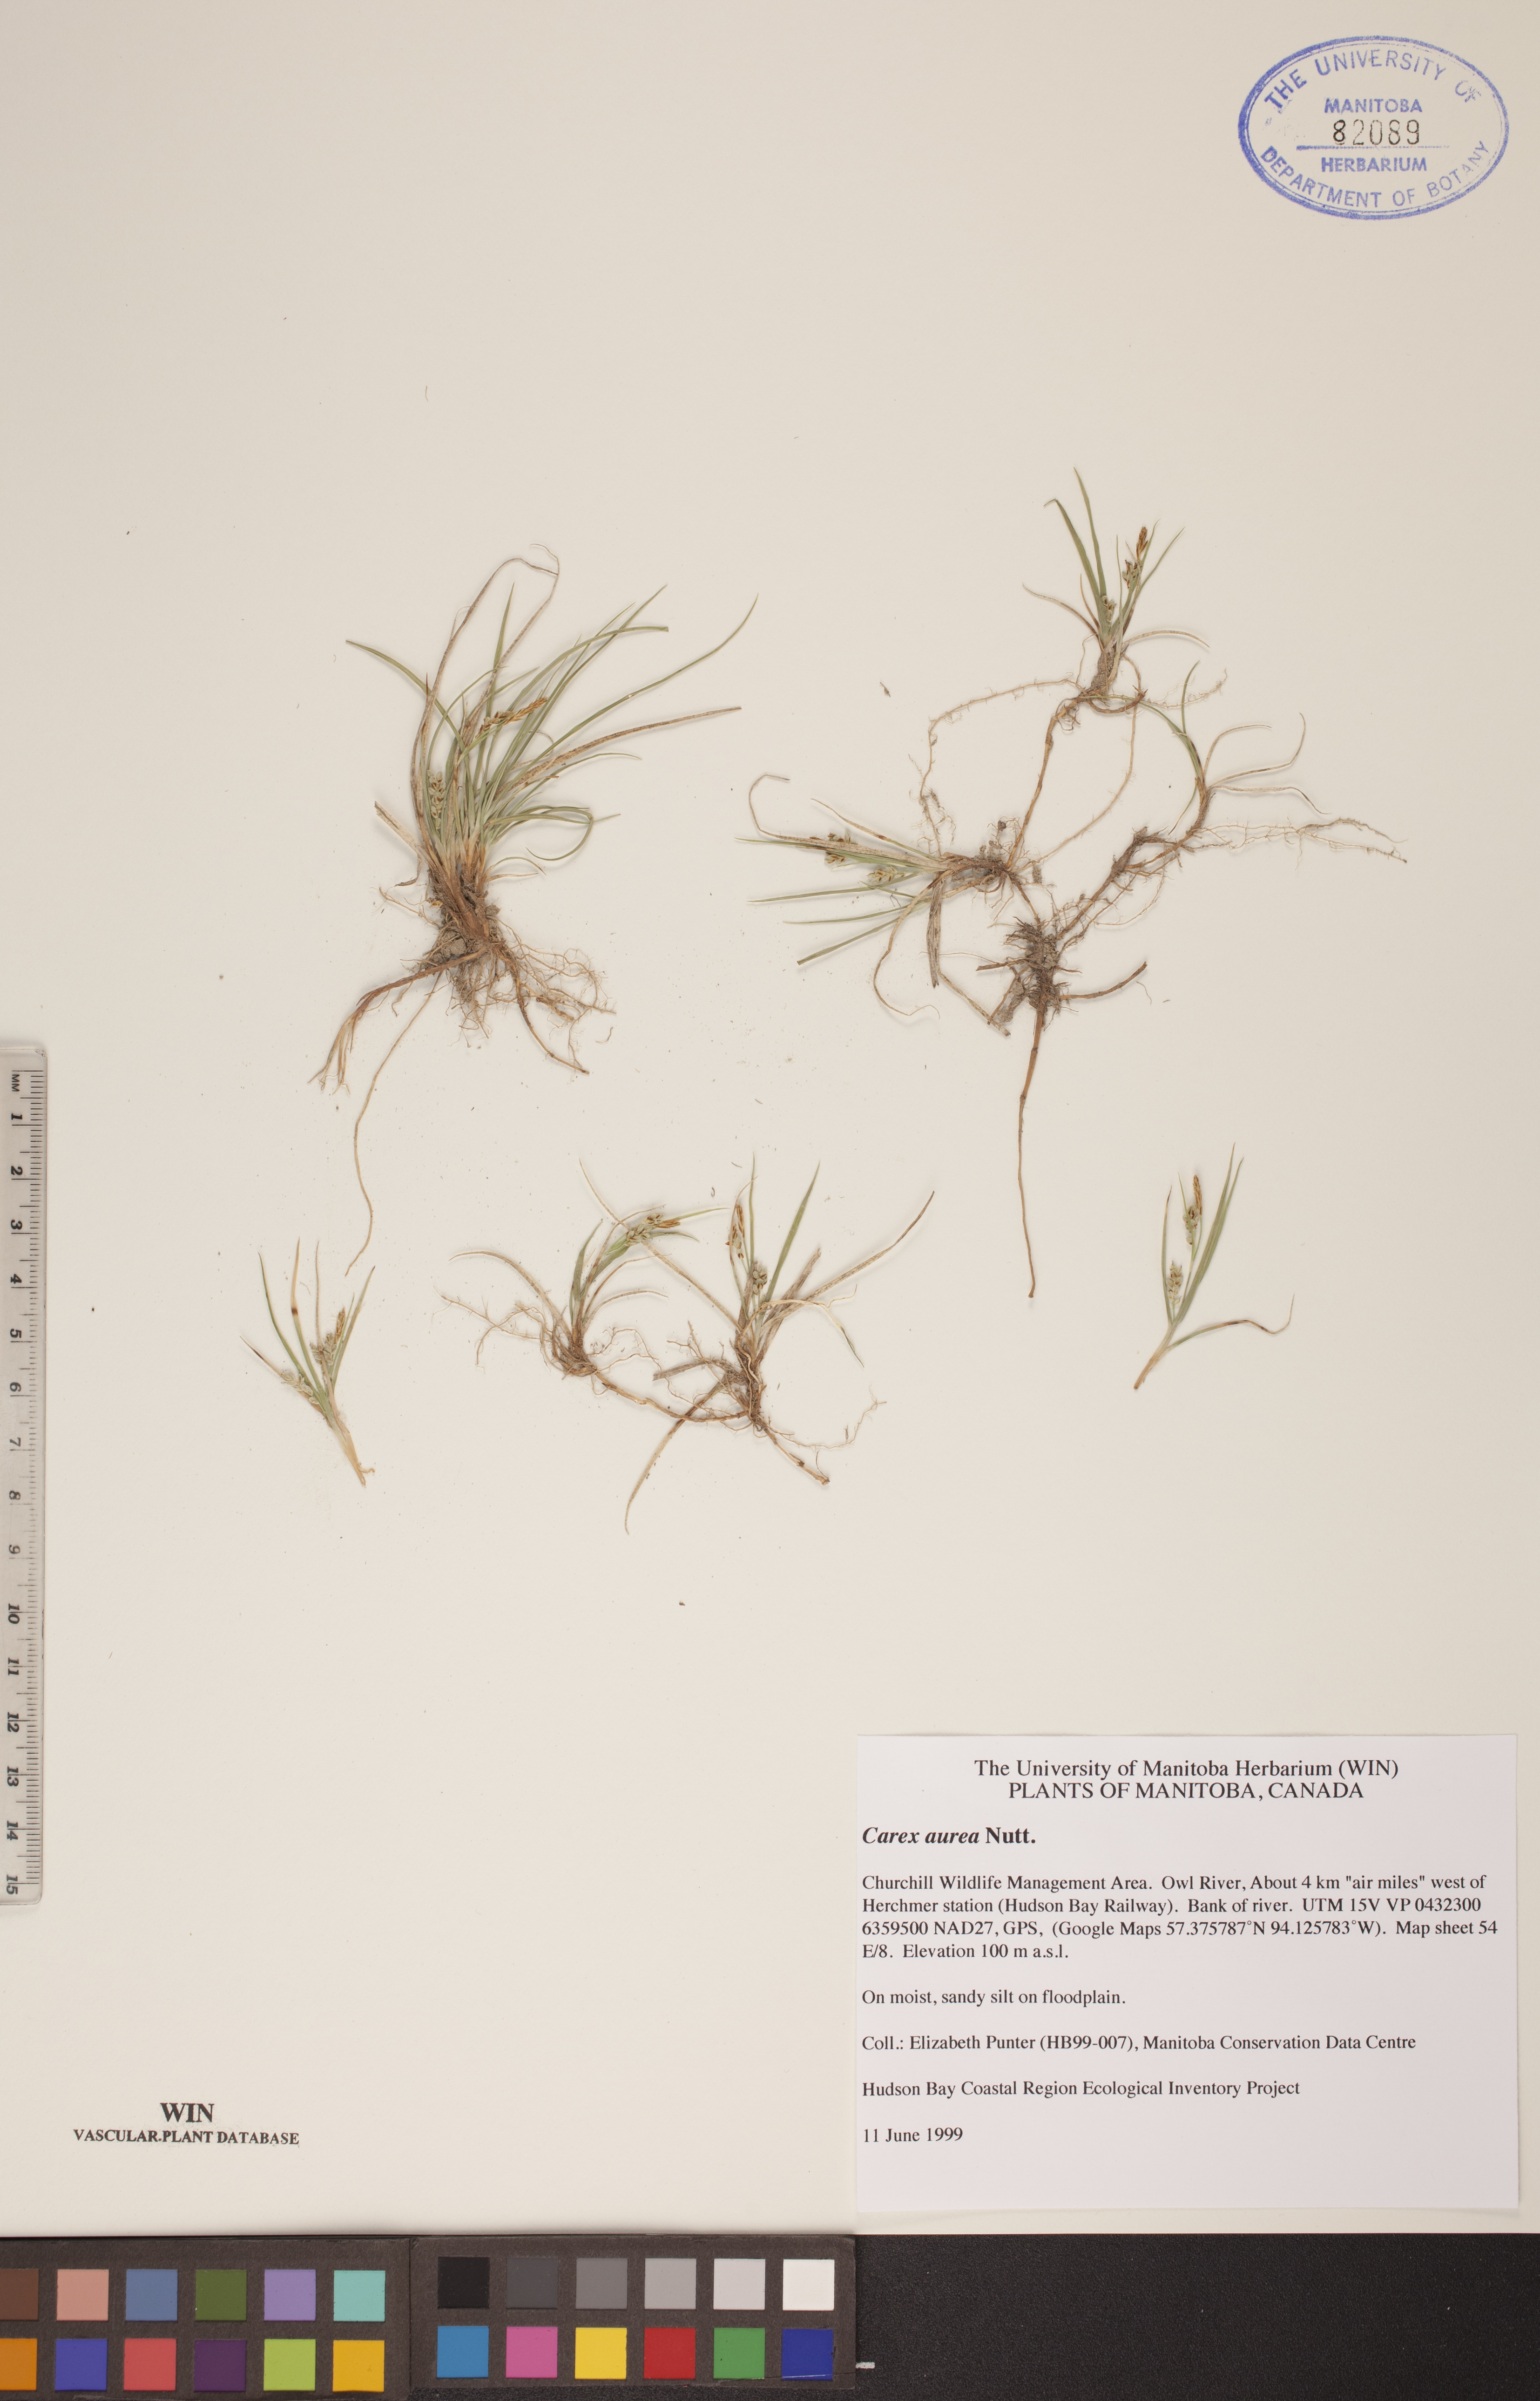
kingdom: Plantae
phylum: Tracheophyta
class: Liliopsida
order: Poales
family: Cyperaceae
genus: Carex
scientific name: Carex aurea
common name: Golden sedge
